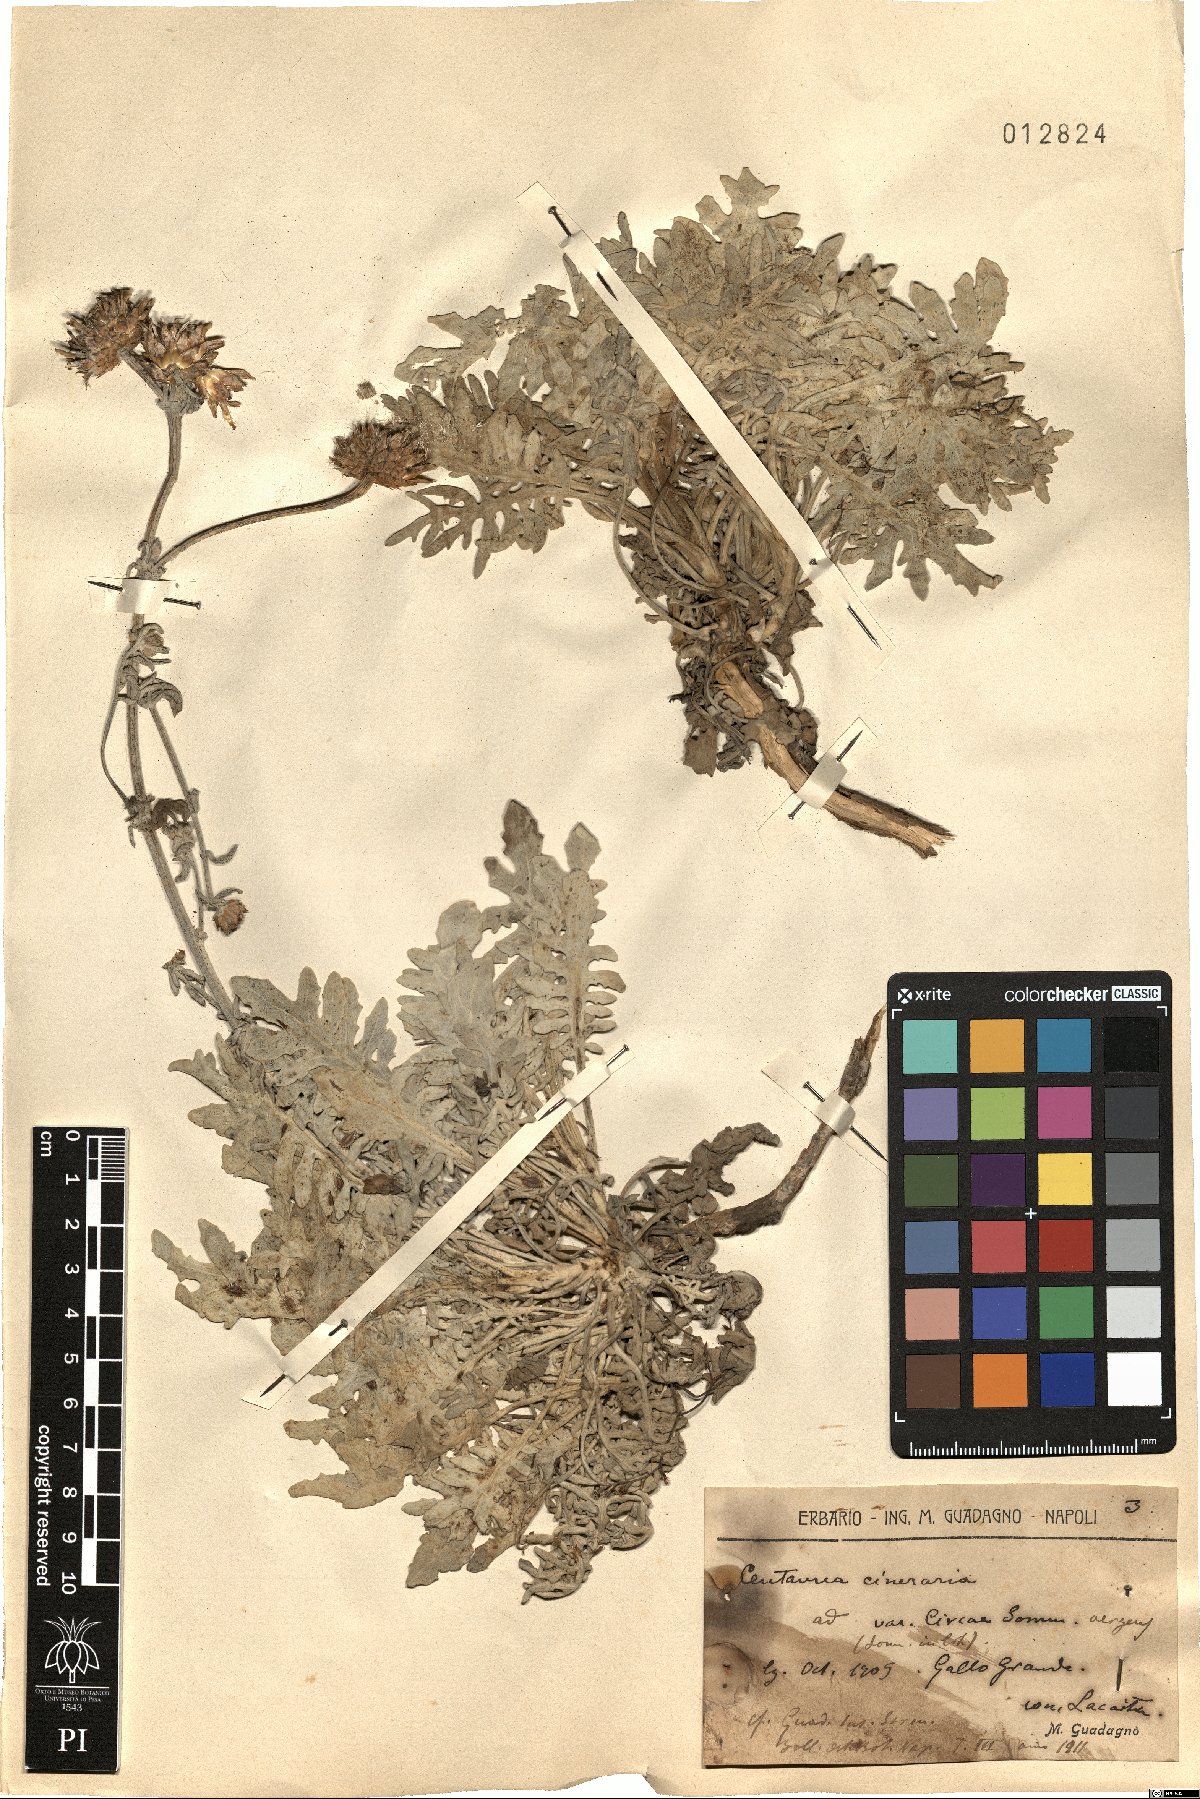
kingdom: Plantae
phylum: Tracheophyta
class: Magnoliopsida
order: Asterales
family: Asteraceae
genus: Centaurea
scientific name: Centaurea cineraria
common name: Dusty miller
